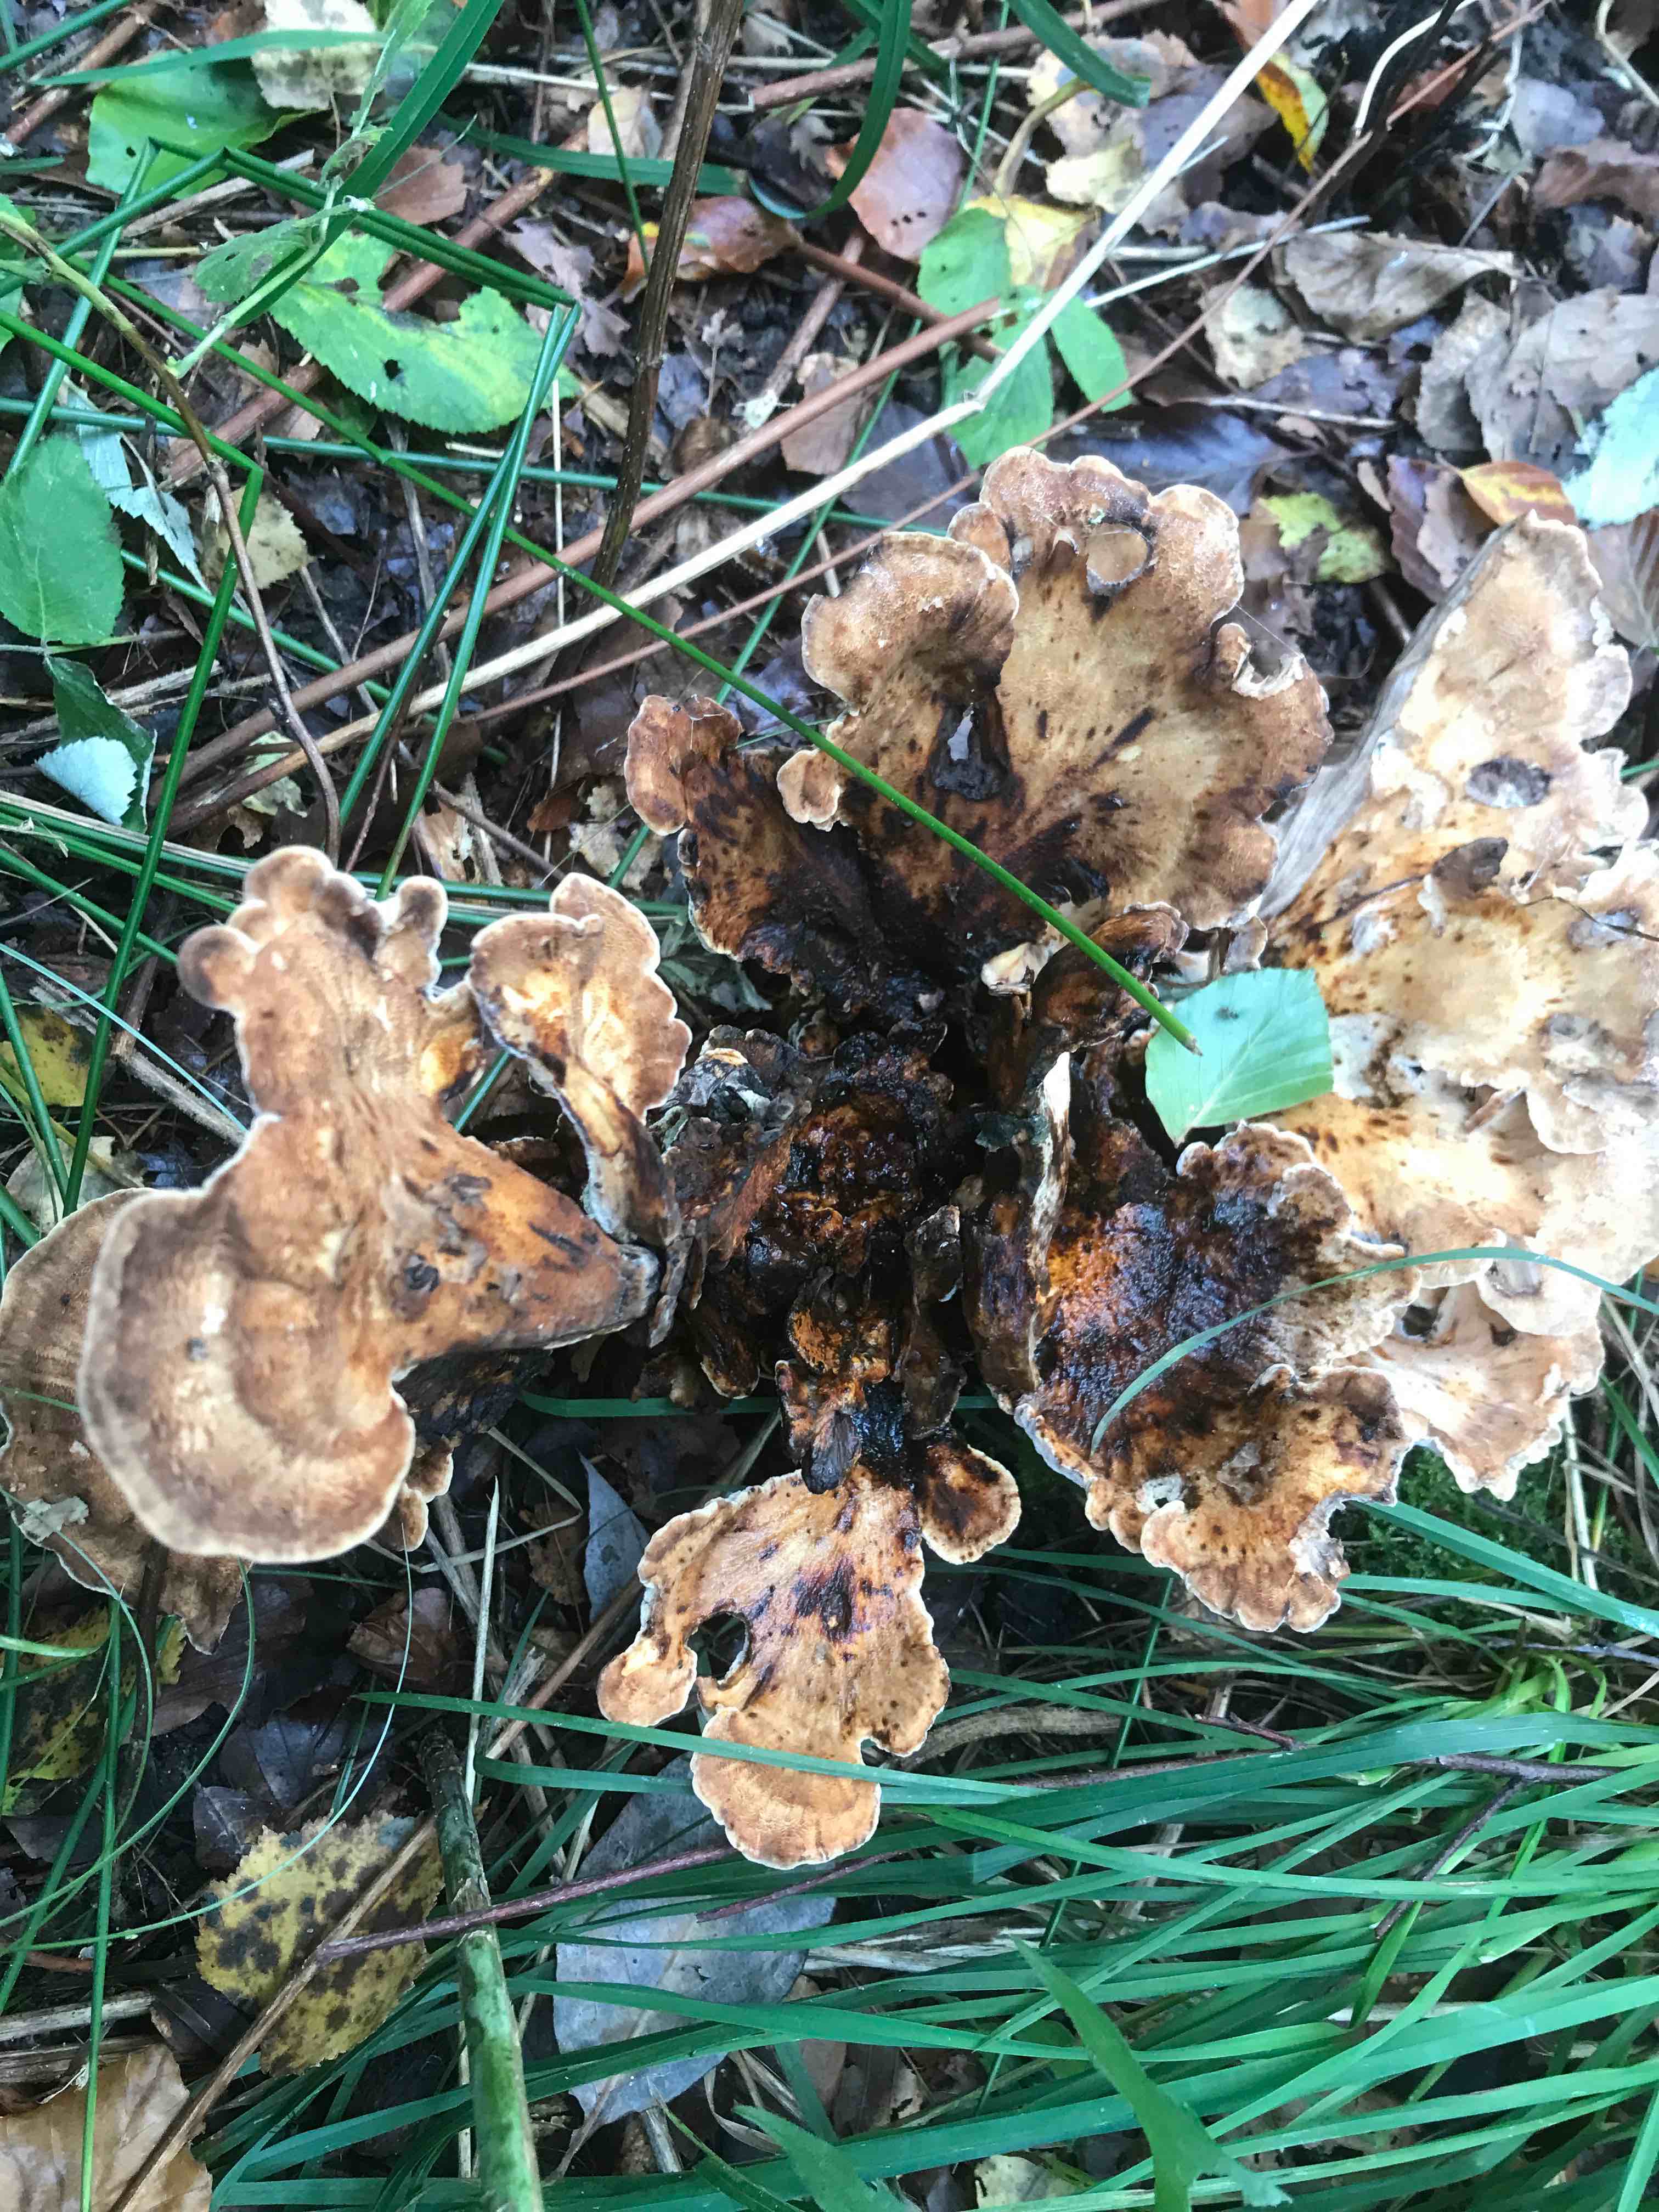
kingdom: Fungi
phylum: Basidiomycota
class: Agaricomycetes
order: Polyporales
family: Meripilaceae
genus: Meripilus
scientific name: Meripilus giganteus
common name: kæmpeporesvamp
